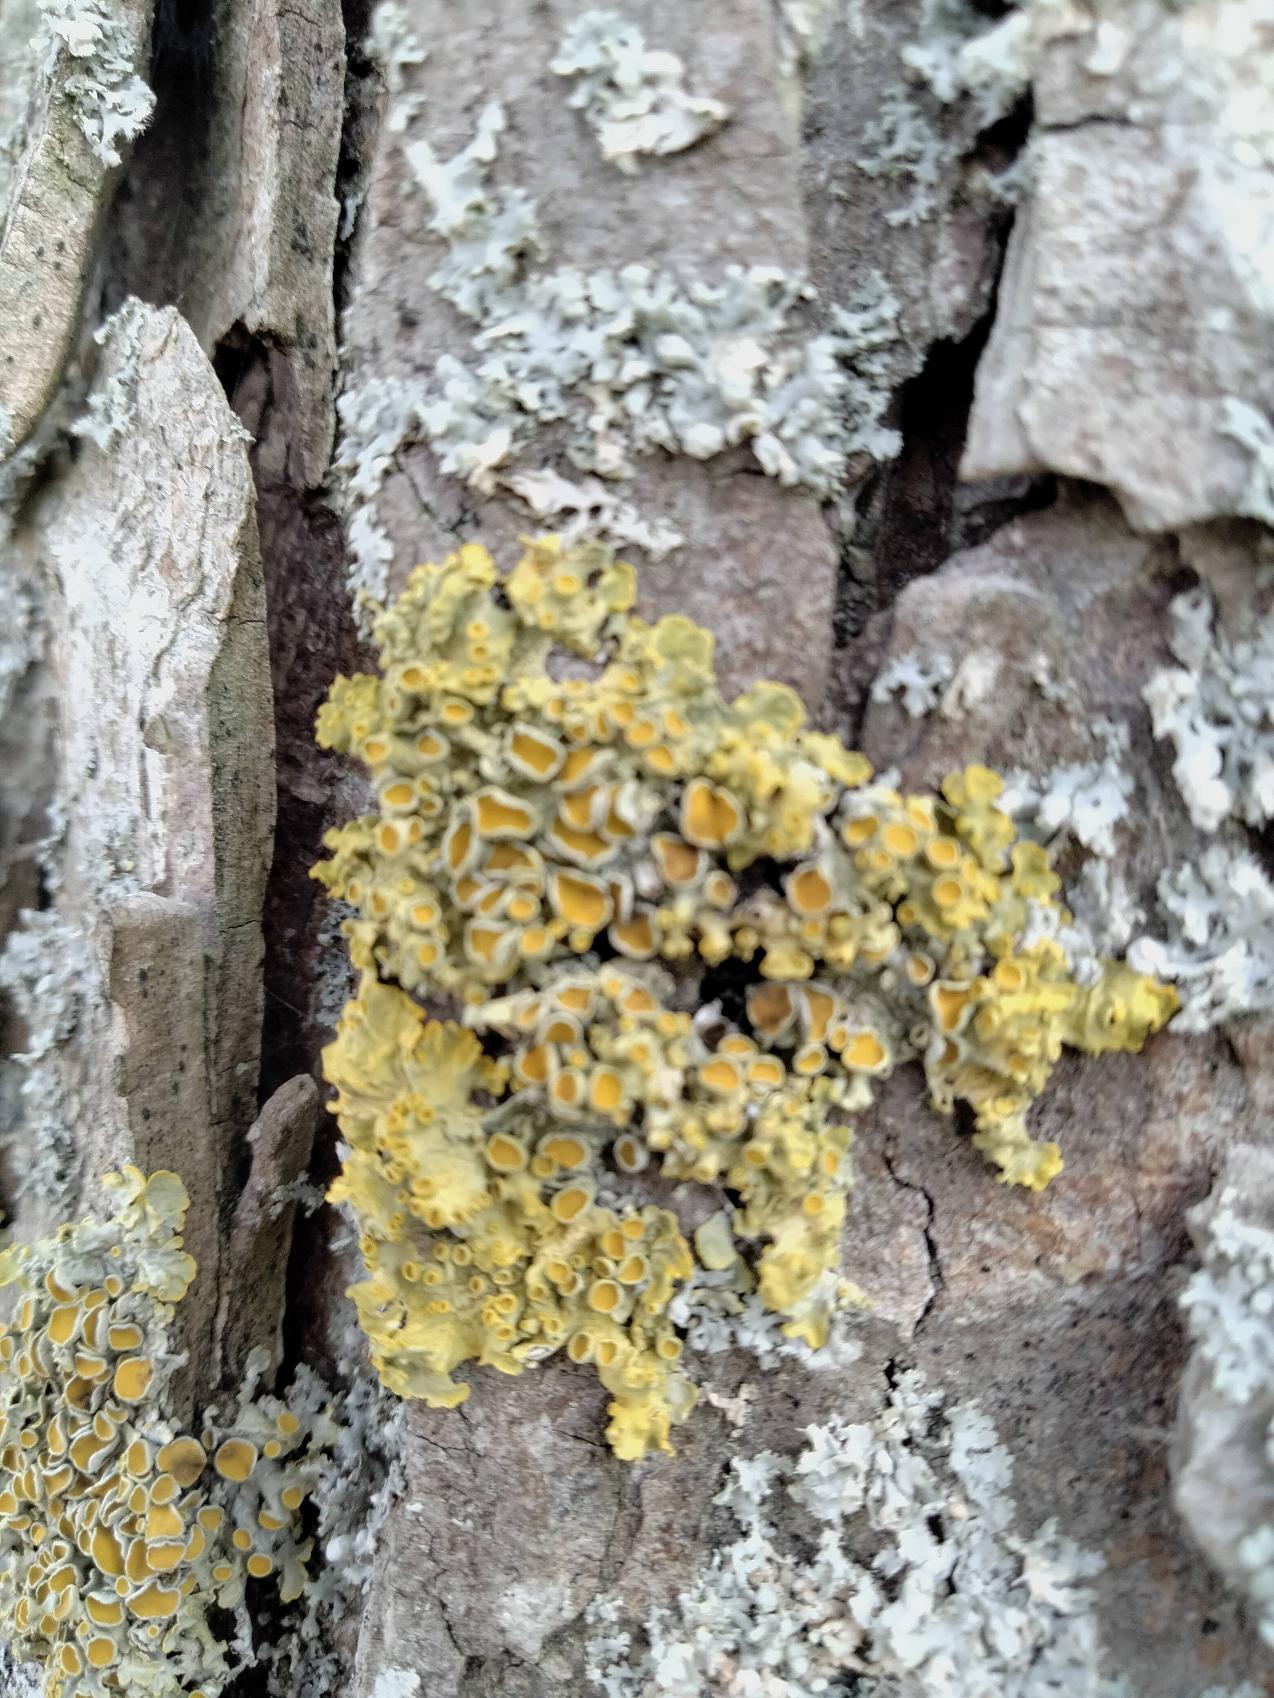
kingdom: Fungi
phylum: Ascomycota
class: Lecanoromycetes
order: Teloschistales
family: Teloschistaceae
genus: Xanthoria
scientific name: Xanthoria parietina
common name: Almindelig væggelav
